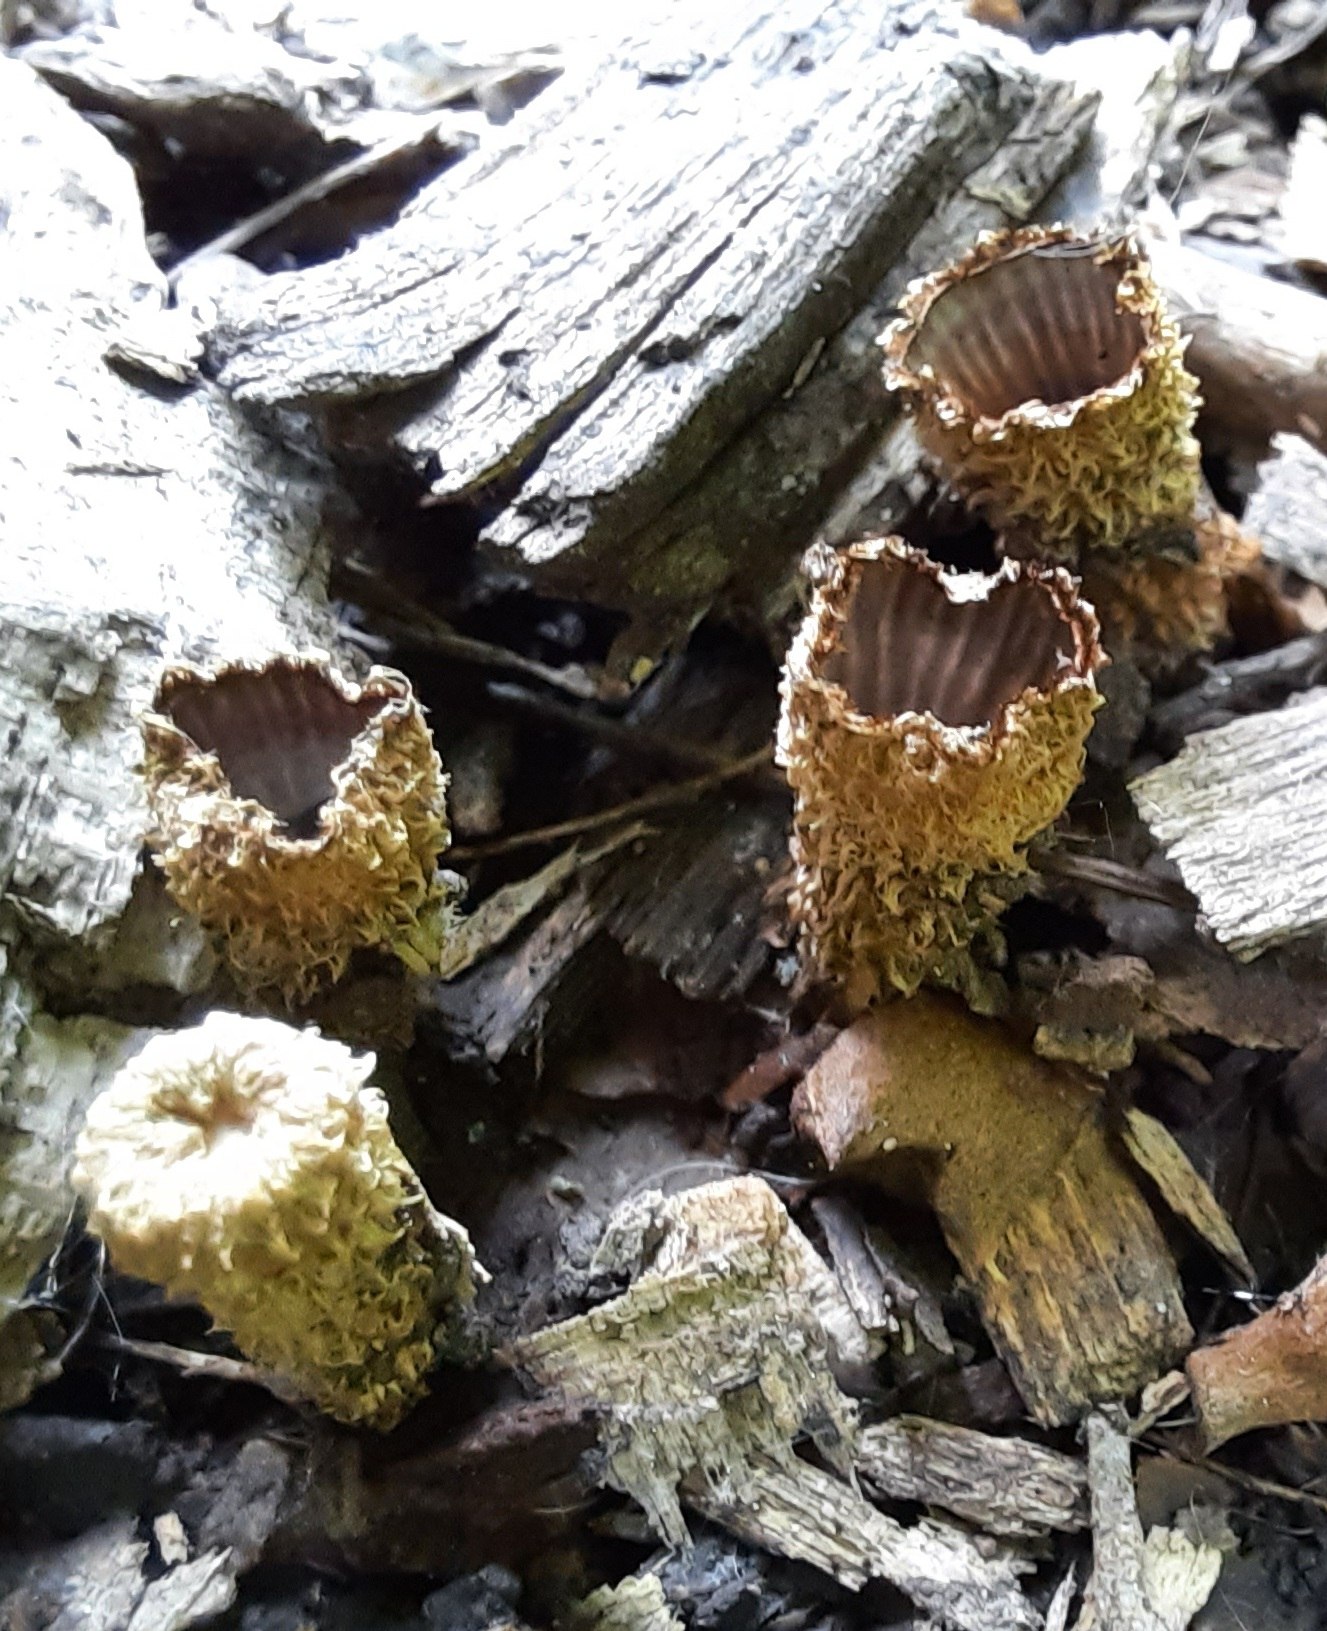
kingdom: Fungi
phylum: Basidiomycota
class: Agaricomycetes
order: Agaricales
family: Agaricaceae
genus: Cyathus
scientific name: Cyathus striatus
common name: stribet redesvamp
